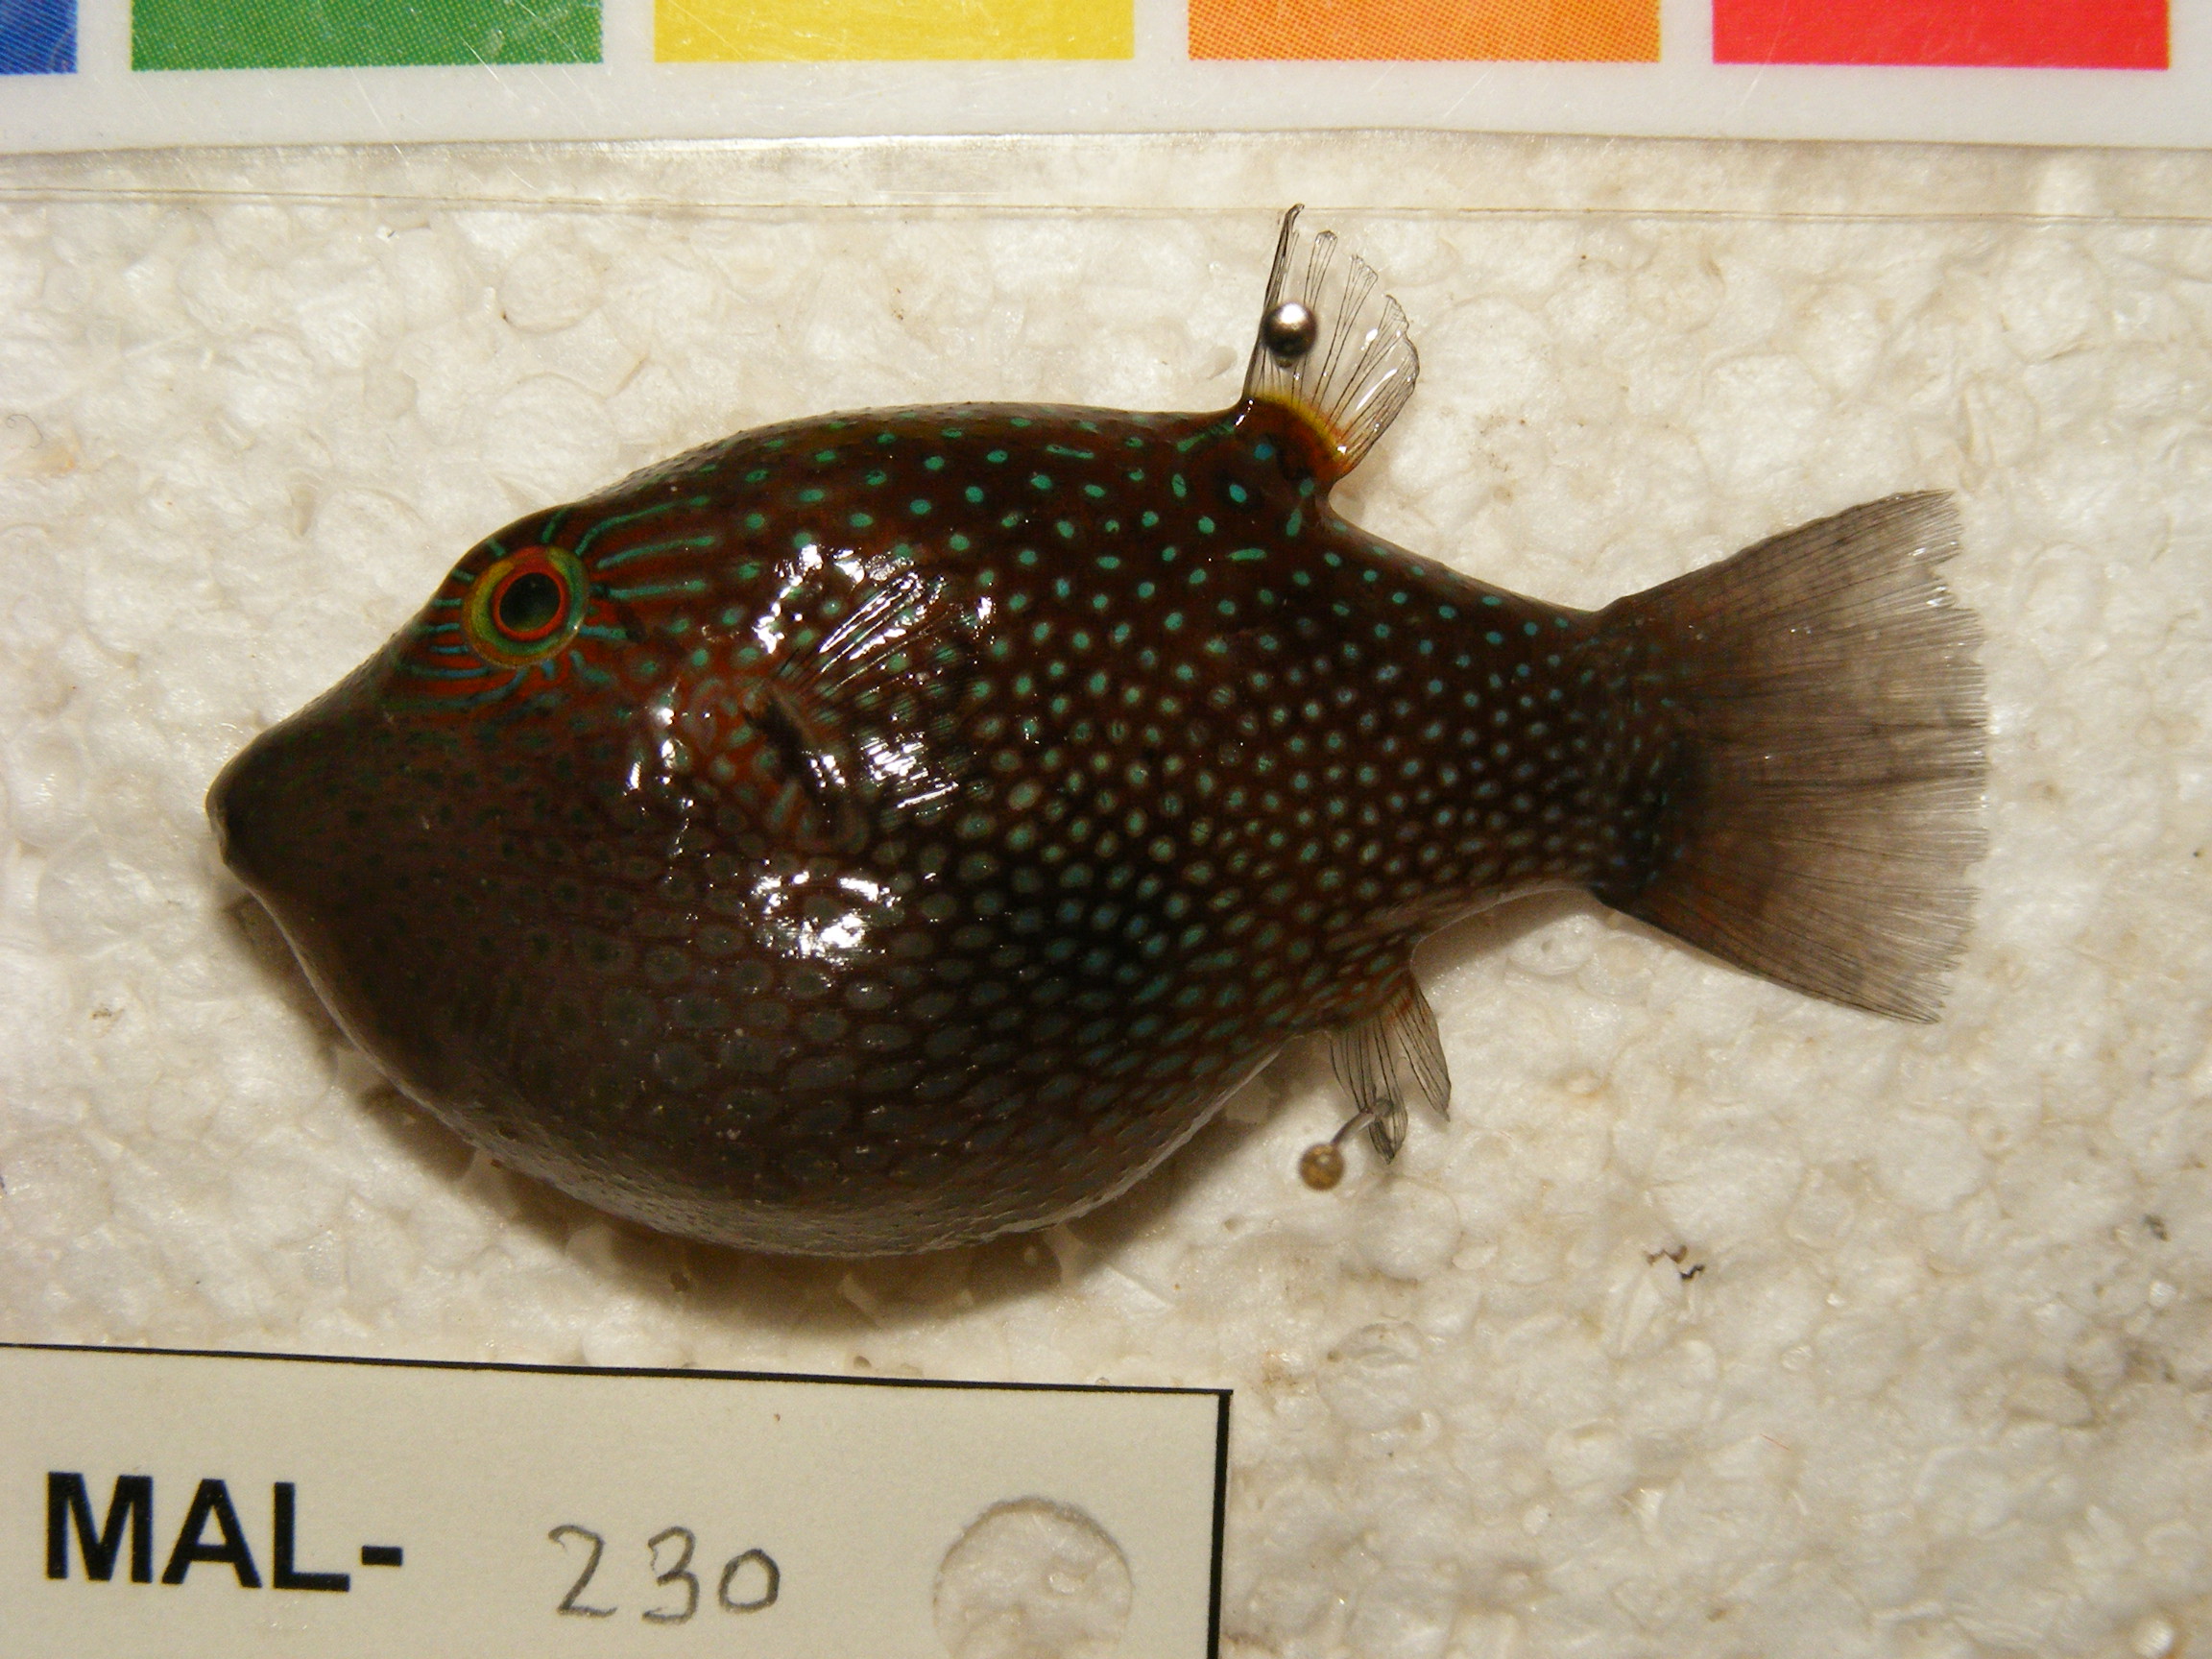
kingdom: Animalia
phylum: Chordata
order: Tetraodontiformes
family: Tetraodontidae
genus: Canthigaster
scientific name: Canthigaster janthinoptera
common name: Honeycomb toby
